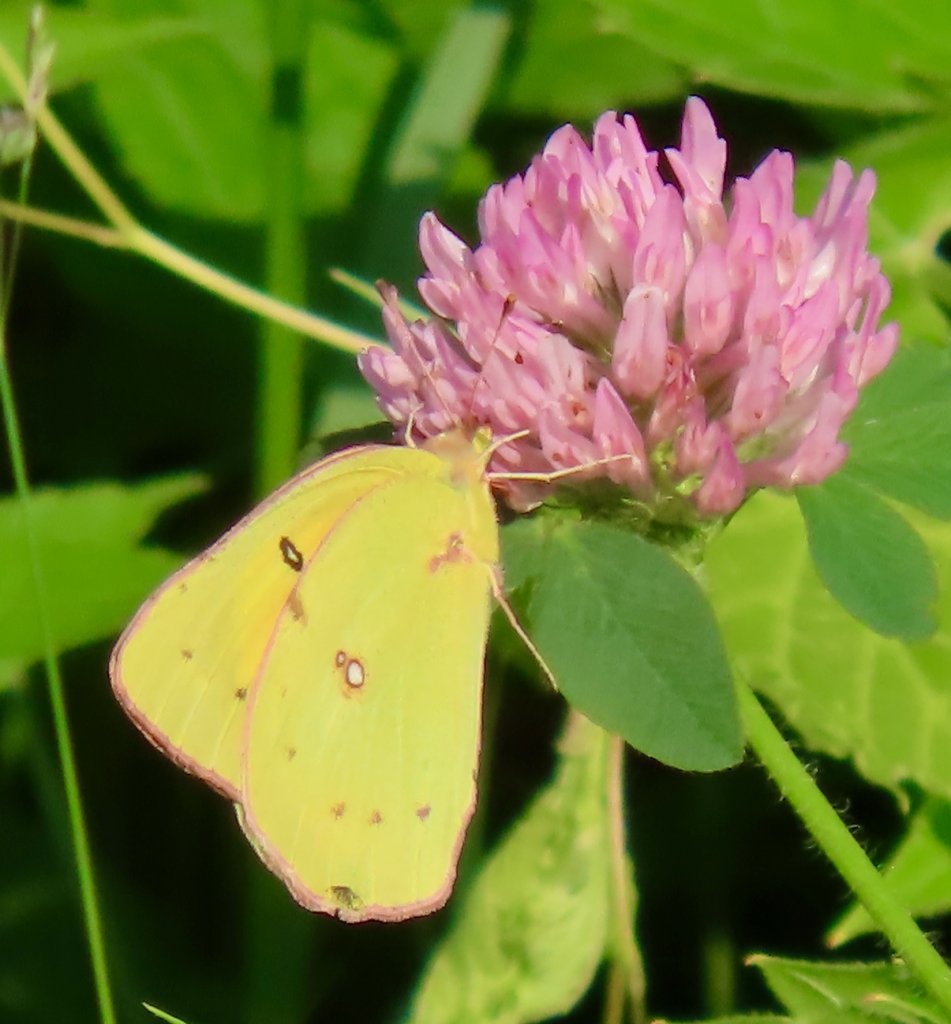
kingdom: Animalia
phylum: Arthropoda
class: Insecta
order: Lepidoptera
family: Pieridae
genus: Colias
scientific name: Colias
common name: Clouded Yellows
